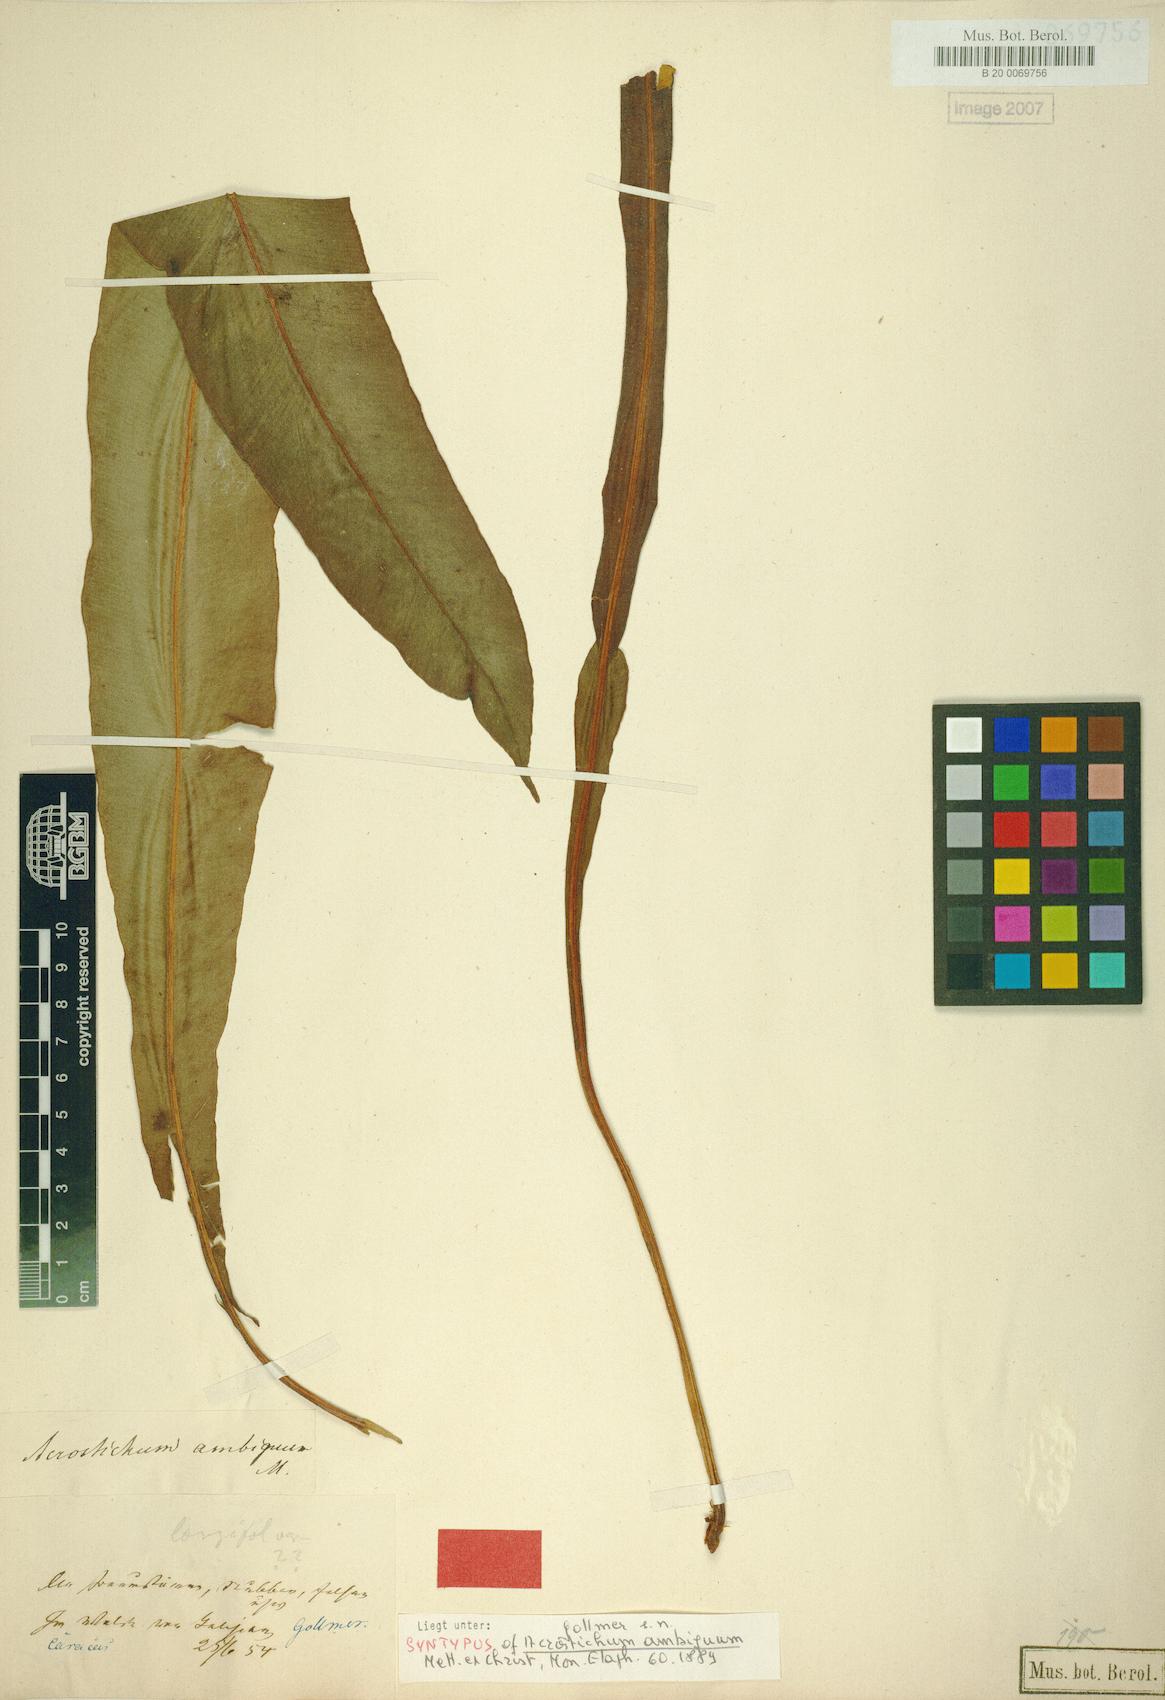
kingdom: Plantae
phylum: Tracheophyta
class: Polypodiopsida
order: Polypodiales
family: Dryopteridaceae
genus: Elaphoglossum
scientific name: Elaphoglossum ambiguum
